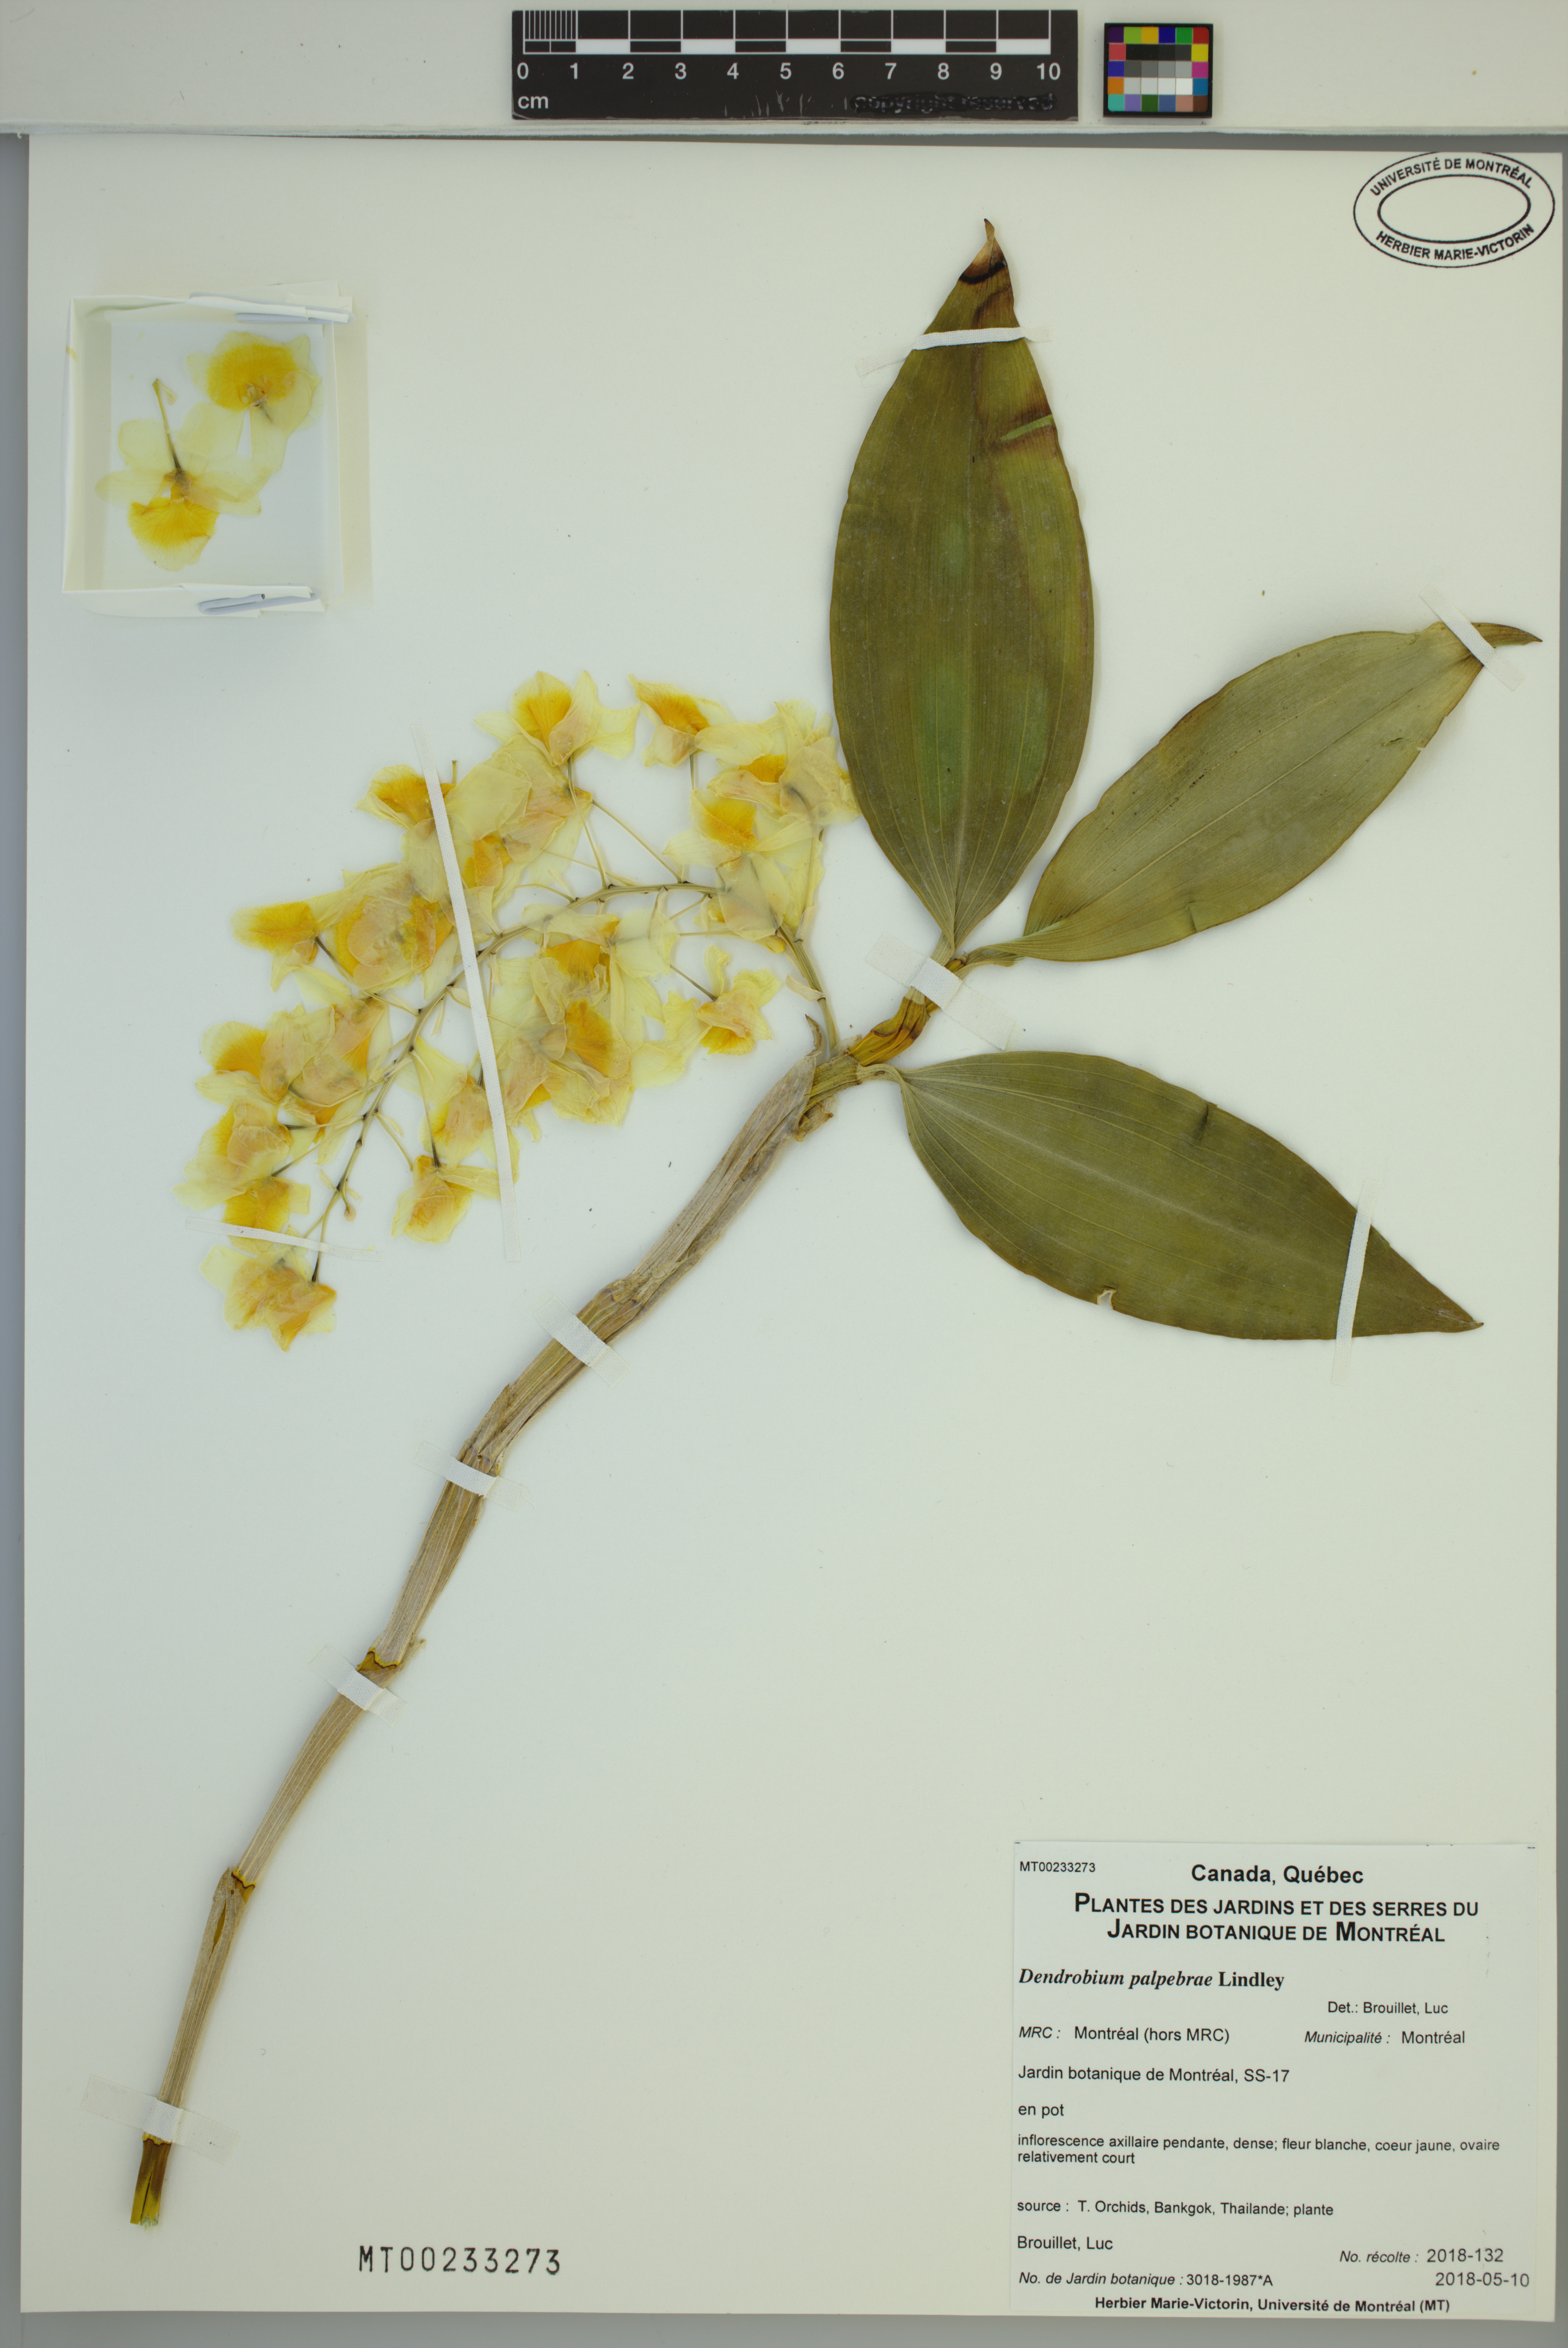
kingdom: Plantae
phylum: Tracheophyta
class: Liliopsida
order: Asparagales
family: Orchidaceae
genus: Dendrobium
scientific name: Dendrobium palpebrae
